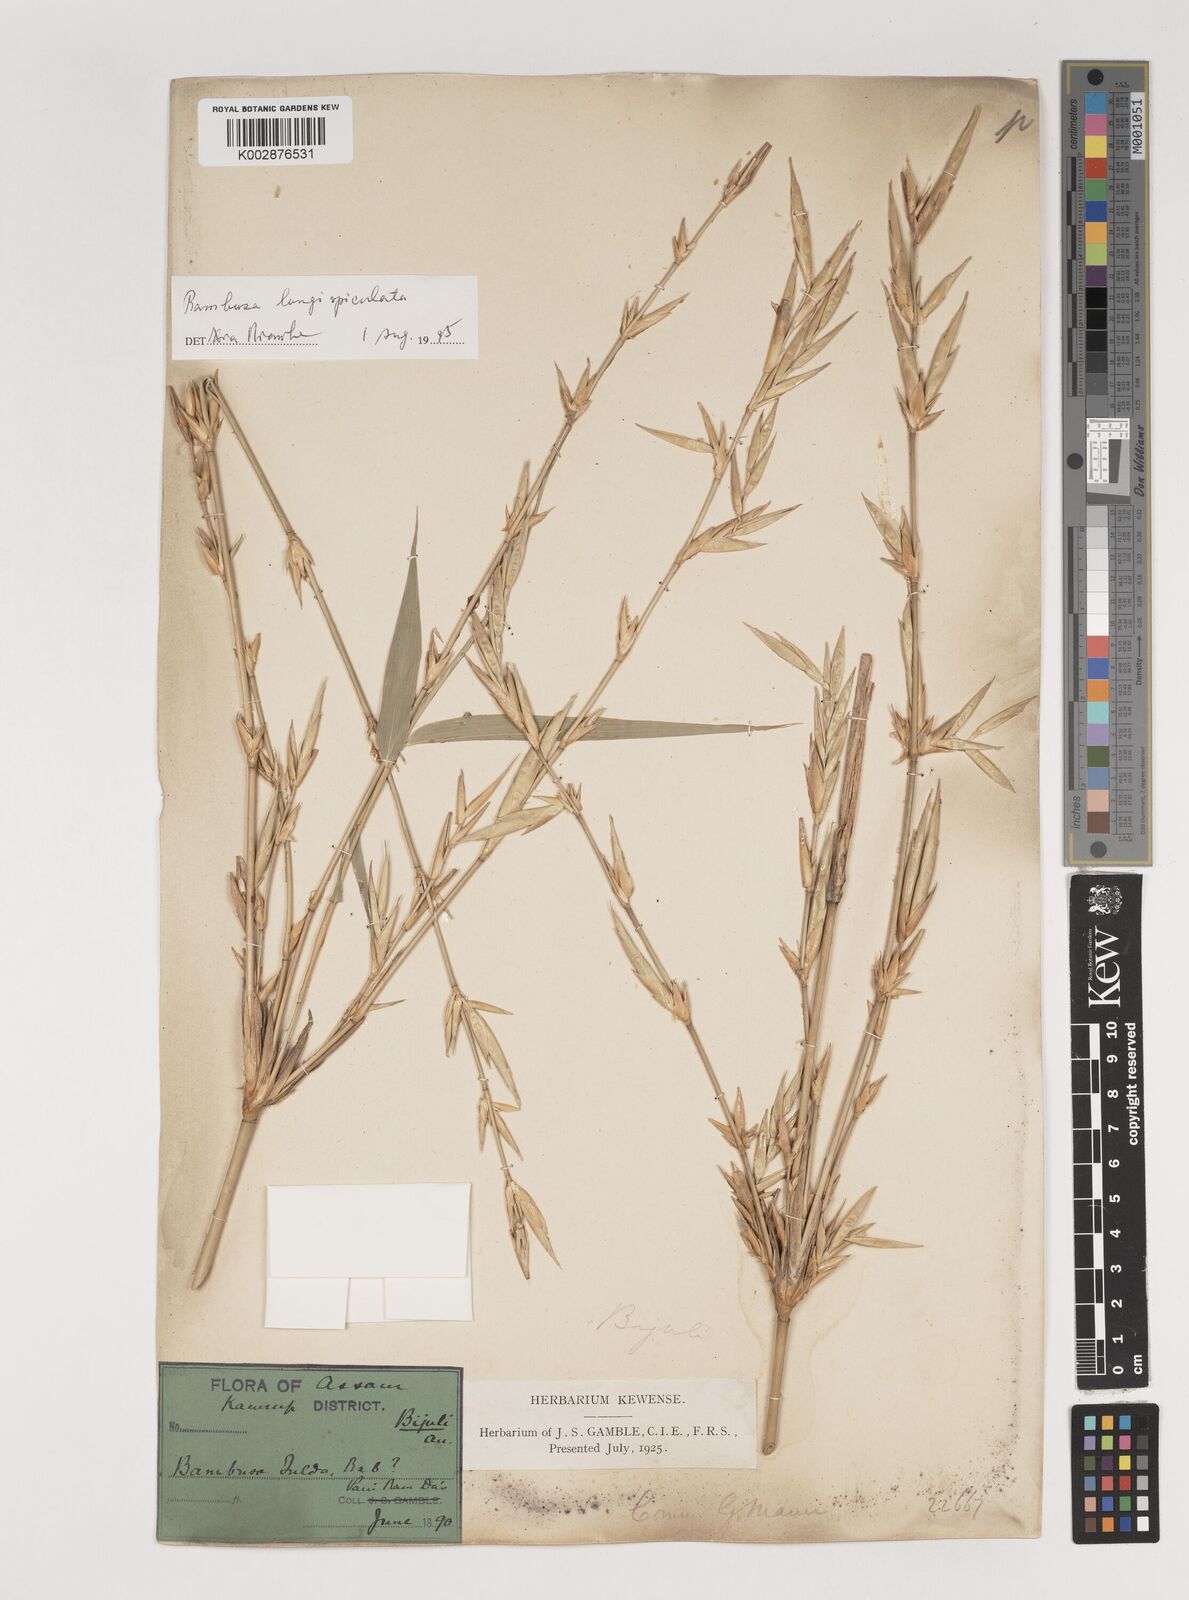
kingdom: Plantae
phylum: Tracheophyta
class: Liliopsida
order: Poales
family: Poaceae
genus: Bambusa
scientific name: Bambusa longispiculata
